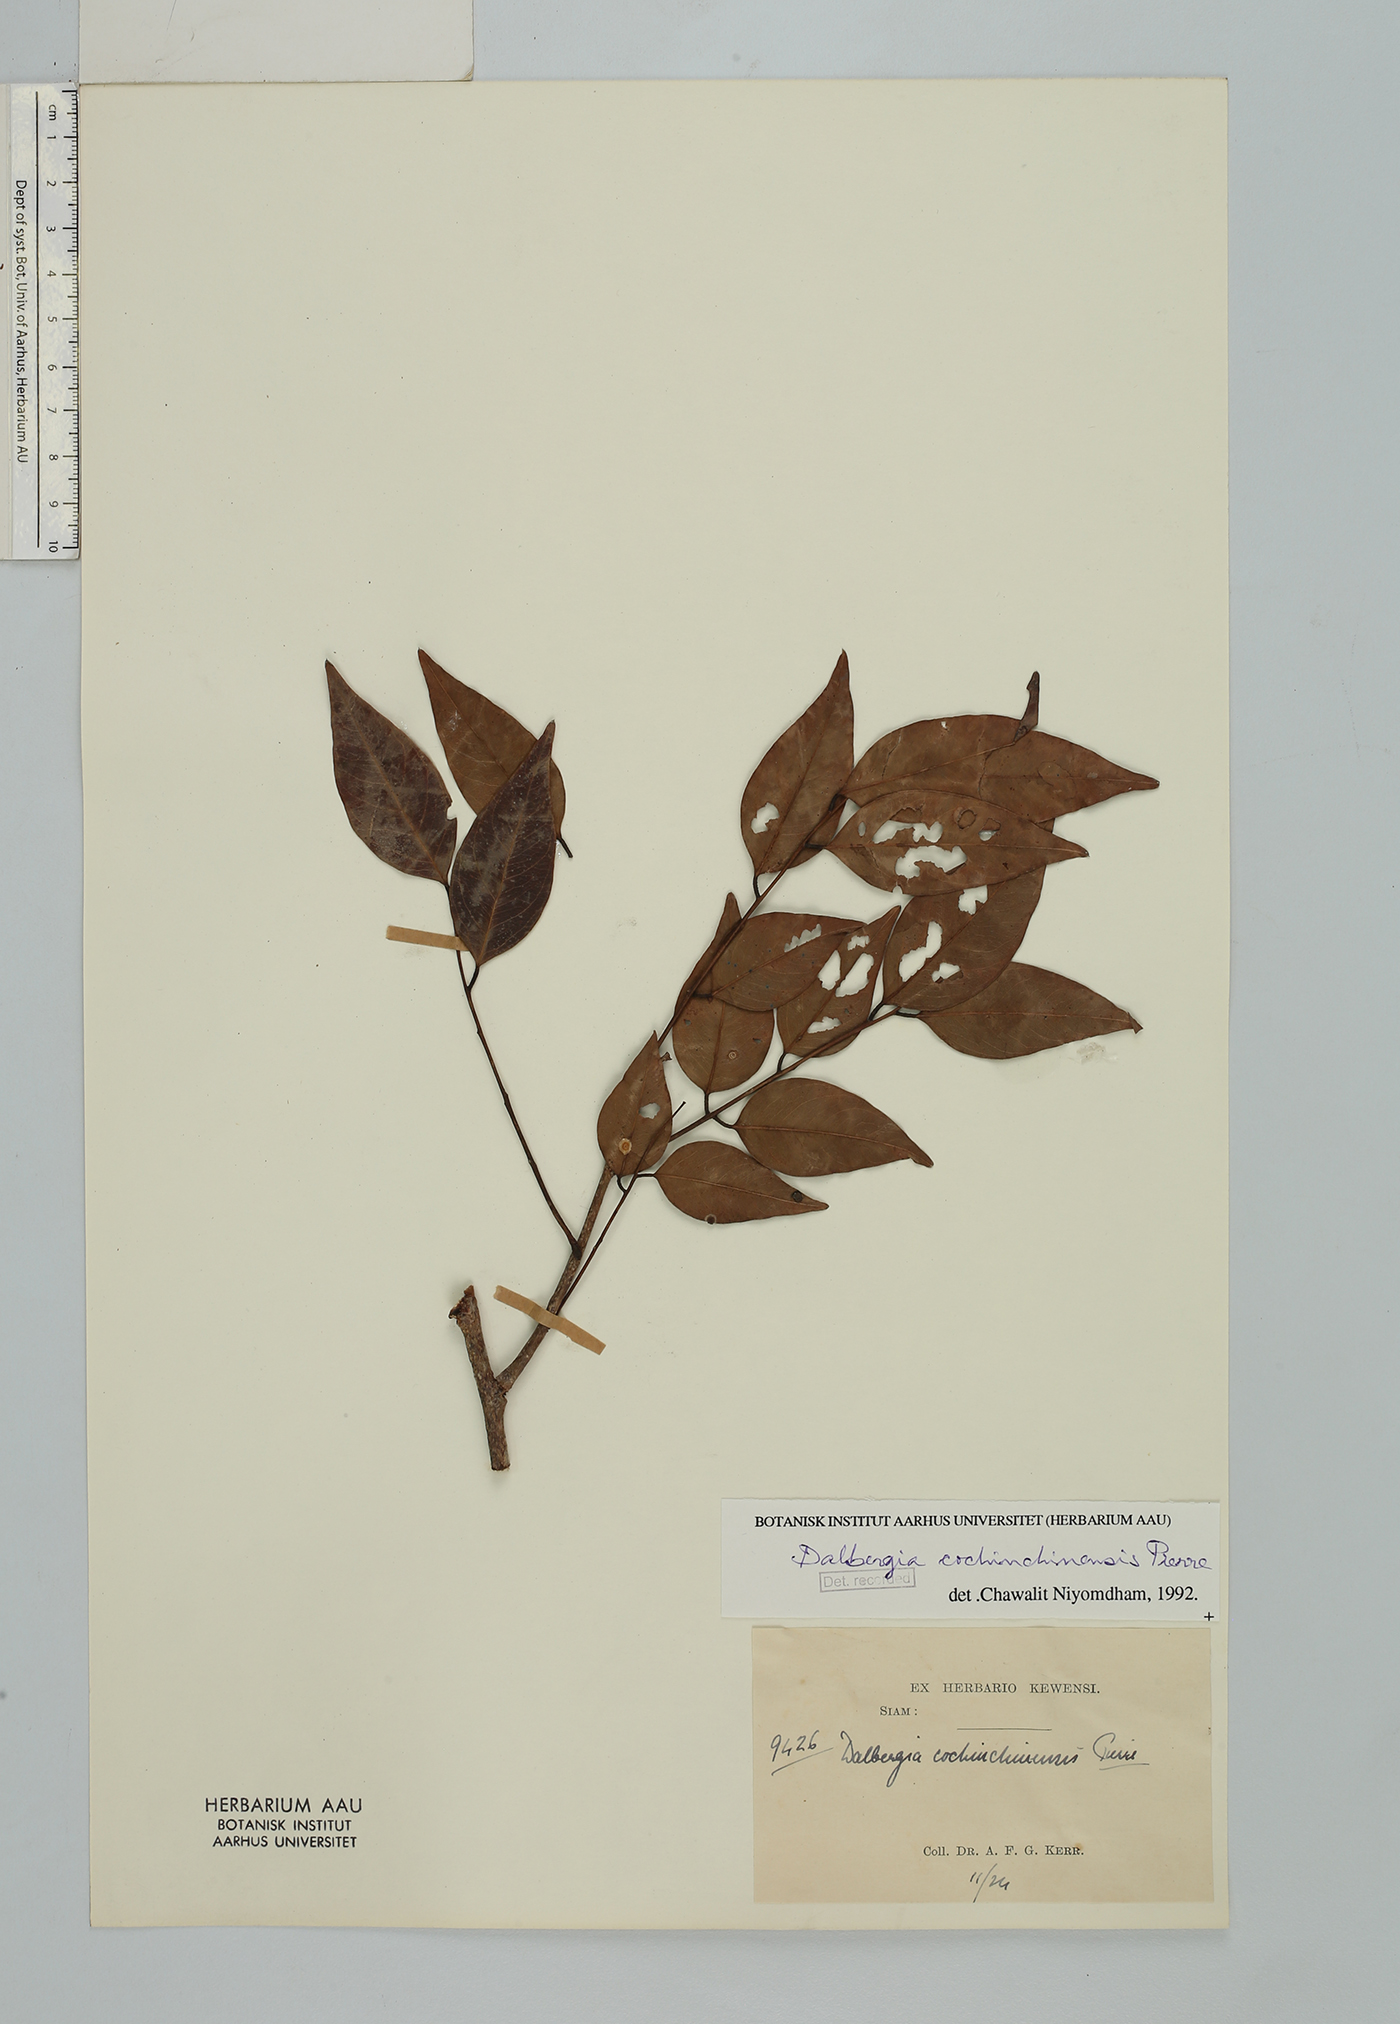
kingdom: Plantae
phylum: Tracheophyta
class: Magnoliopsida
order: Fabales
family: Fabaceae
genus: Dalbergia
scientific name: Dalbergia cochinchinensis
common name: Siamese rosewood
